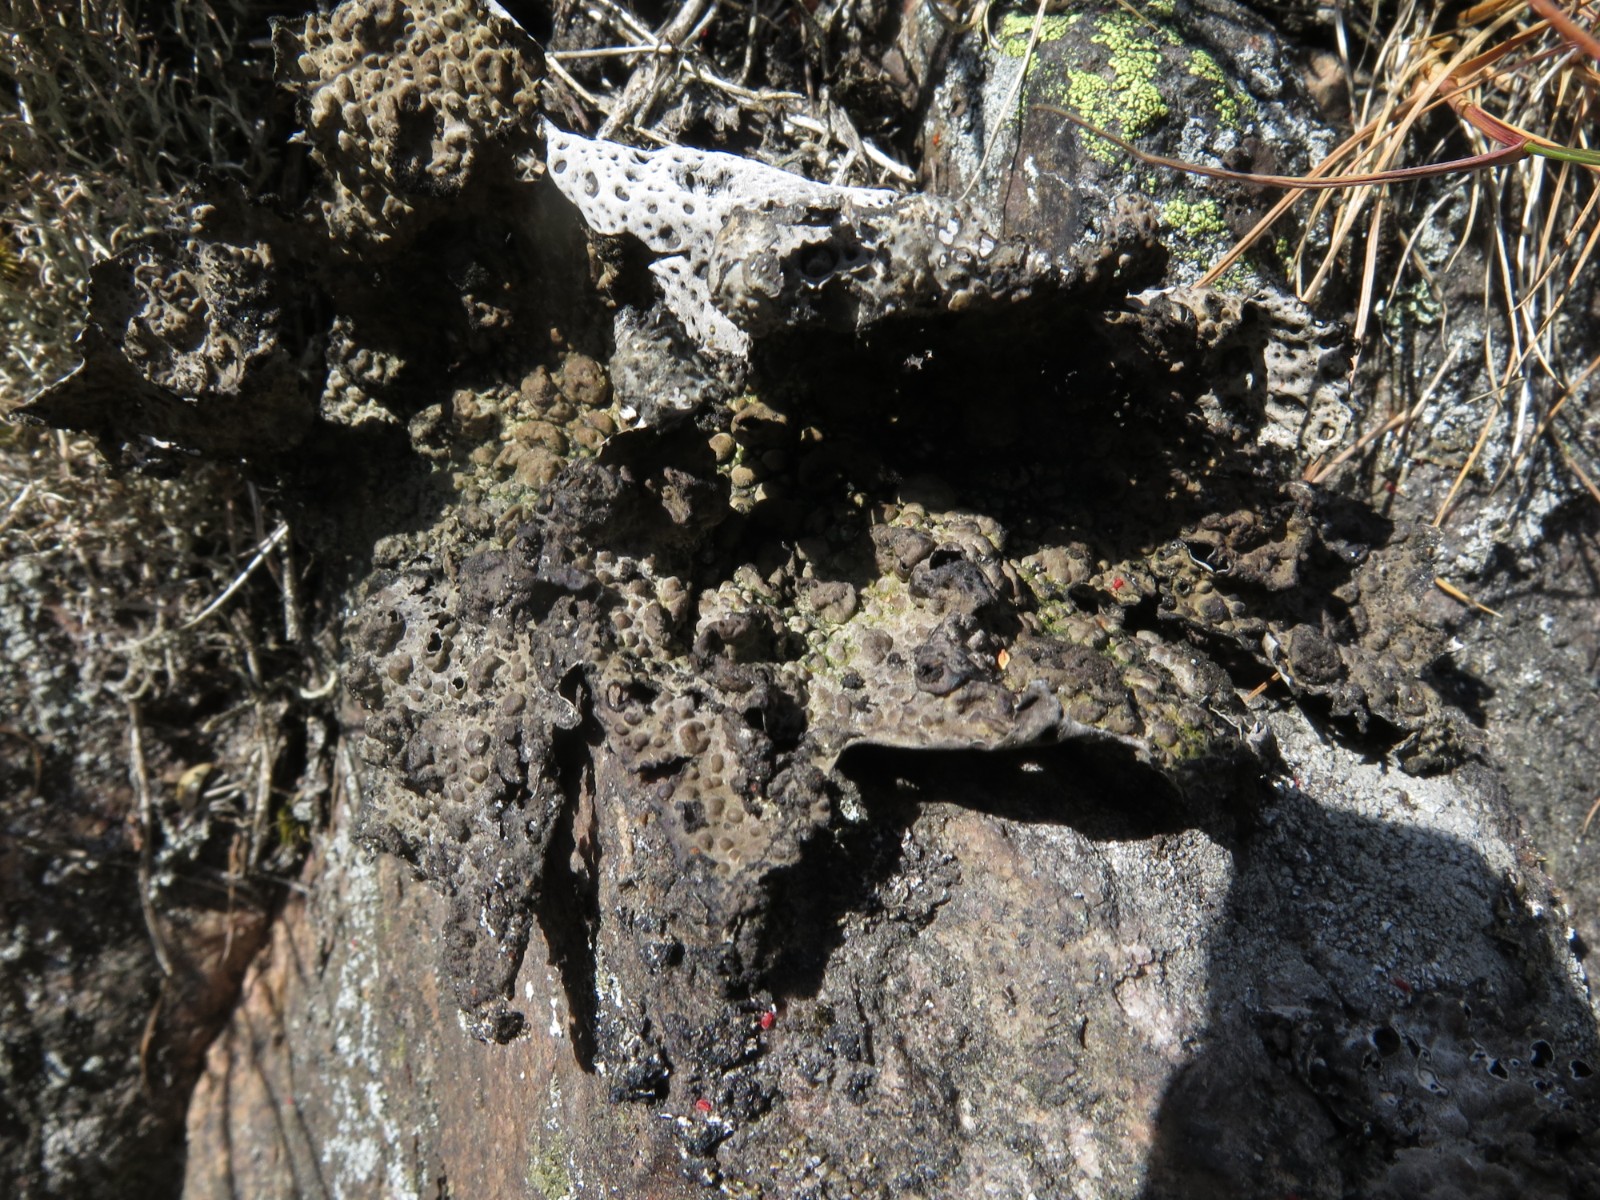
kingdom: Fungi
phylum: Ascomycota
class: Lecanoromycetes
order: Umbilicariales
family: Umbilicariaceae
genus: Lasallia
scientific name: Lasallia pustulata
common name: buklet navlelav
